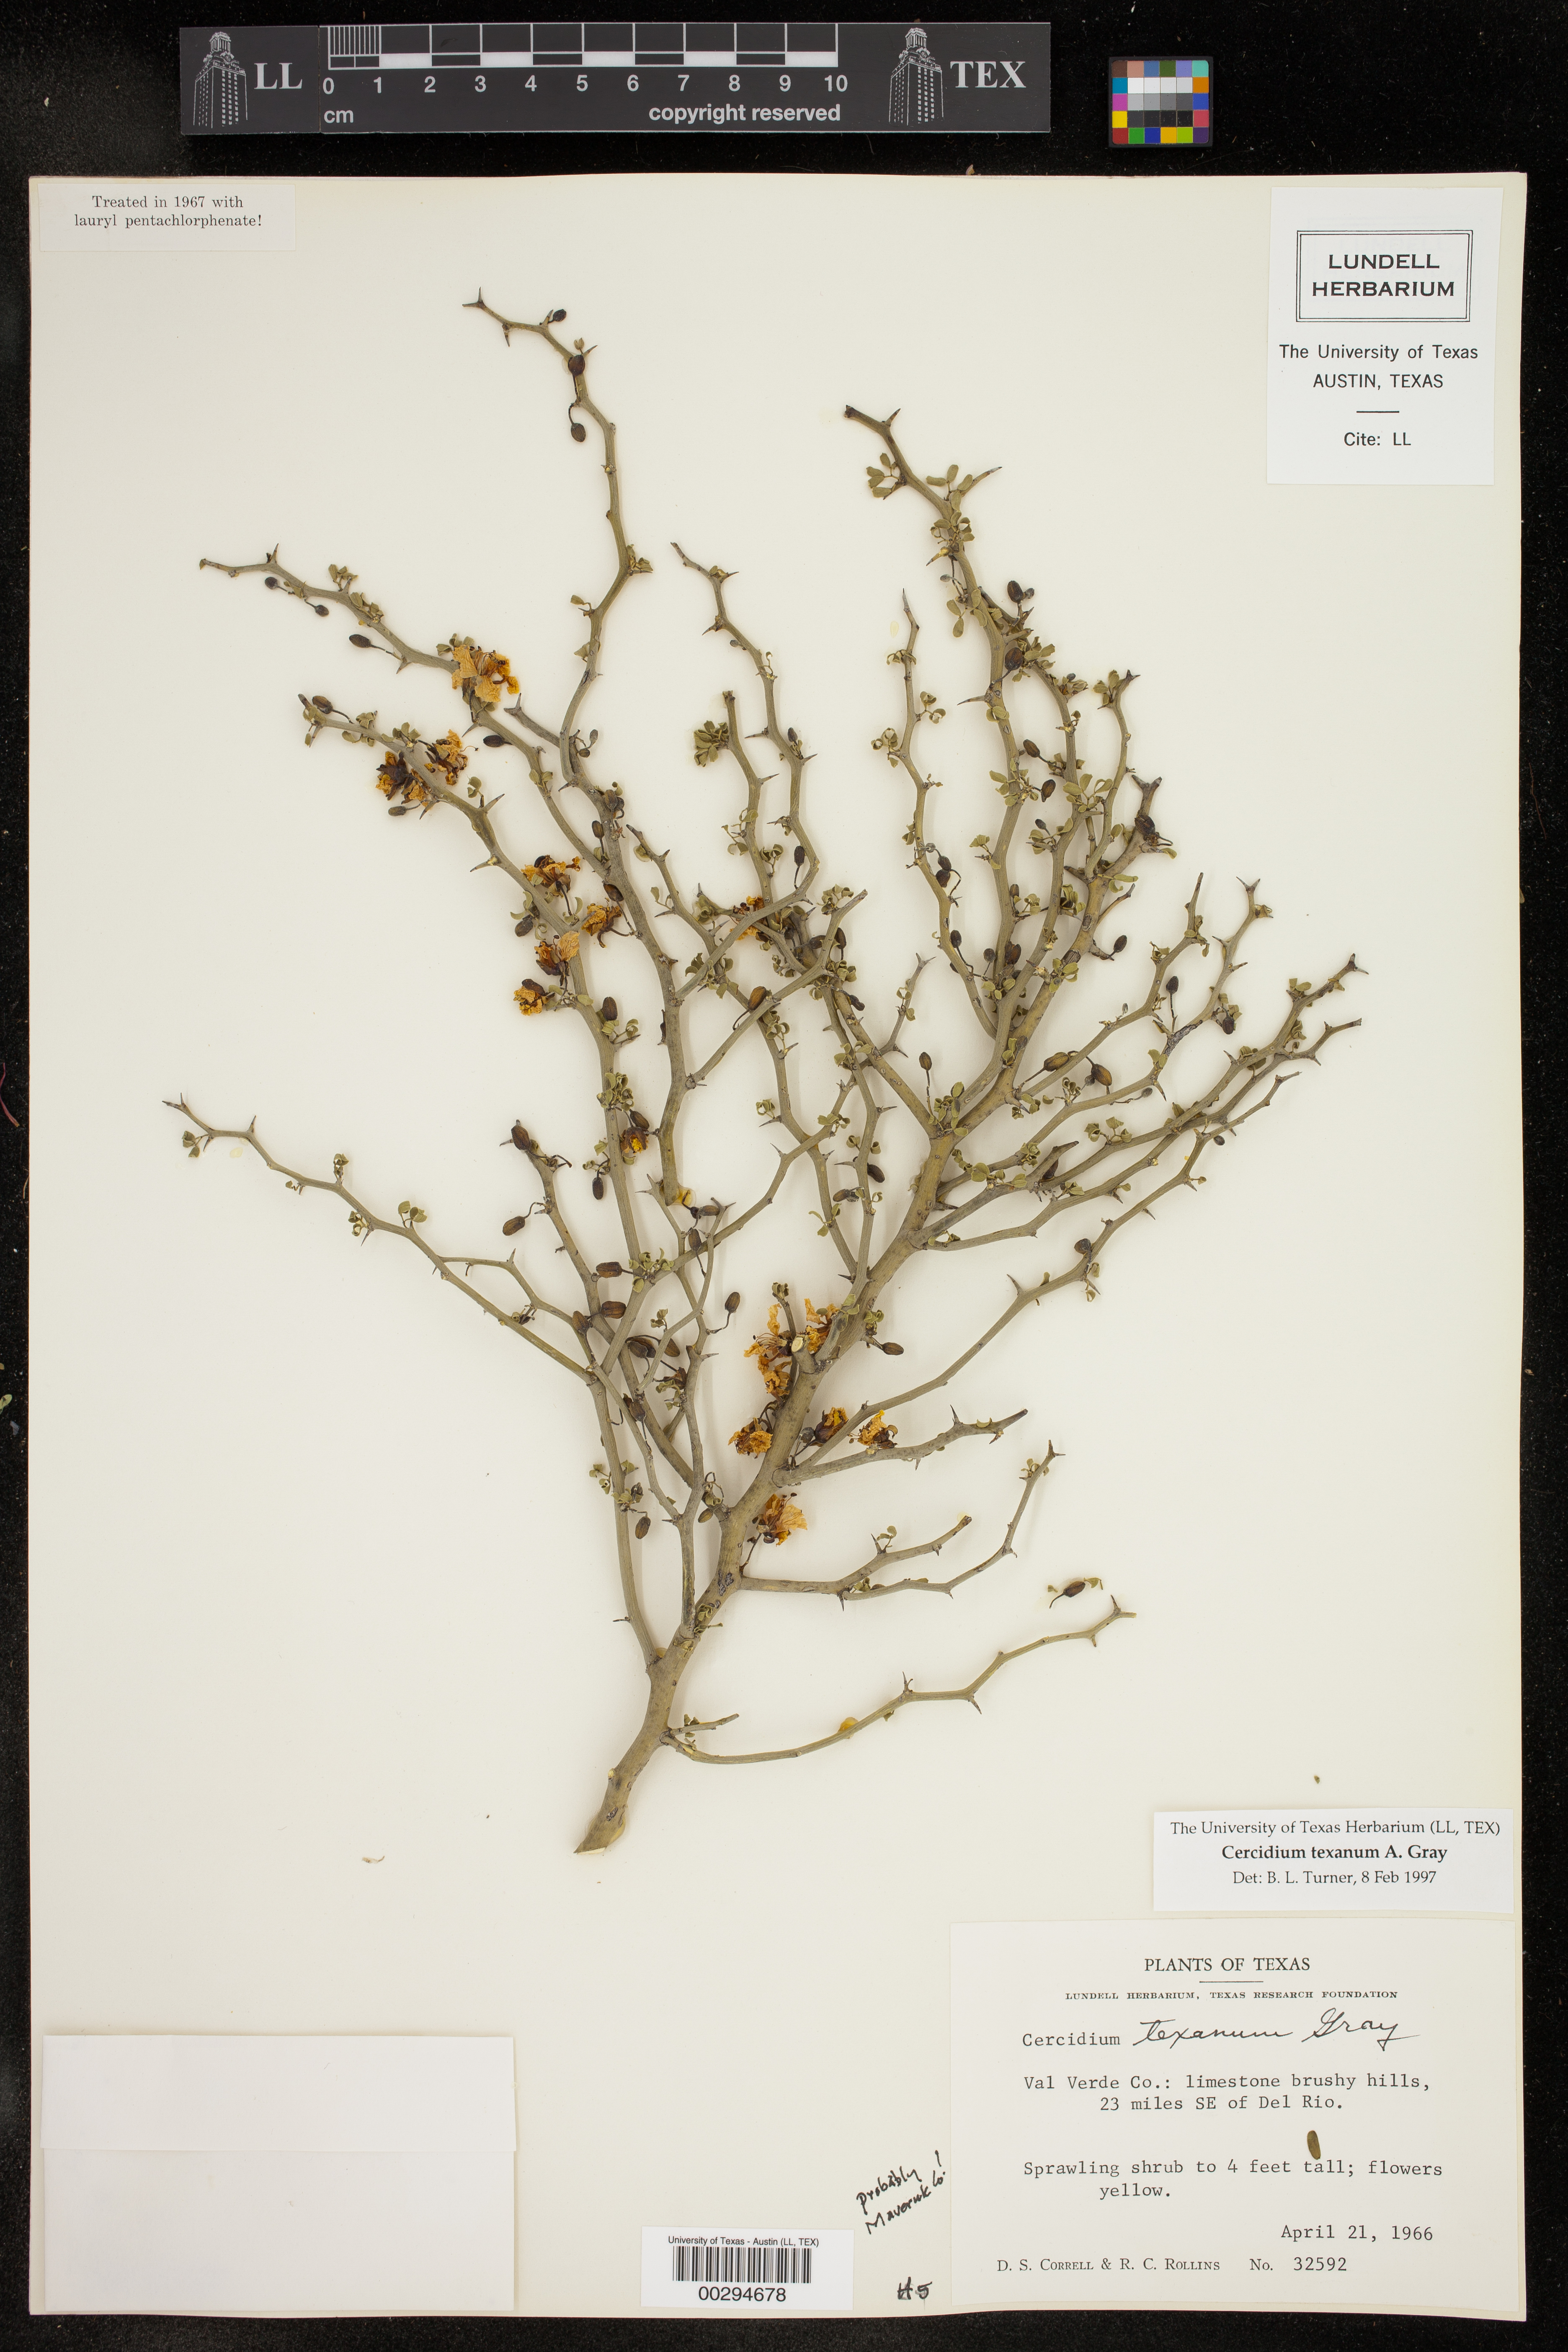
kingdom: Plantae
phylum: Tracheophyta
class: Magnoliopsida
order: Fabales
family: Fabaceae
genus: Parkinsonia
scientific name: Parkinsonia texana
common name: Texas paloverde
